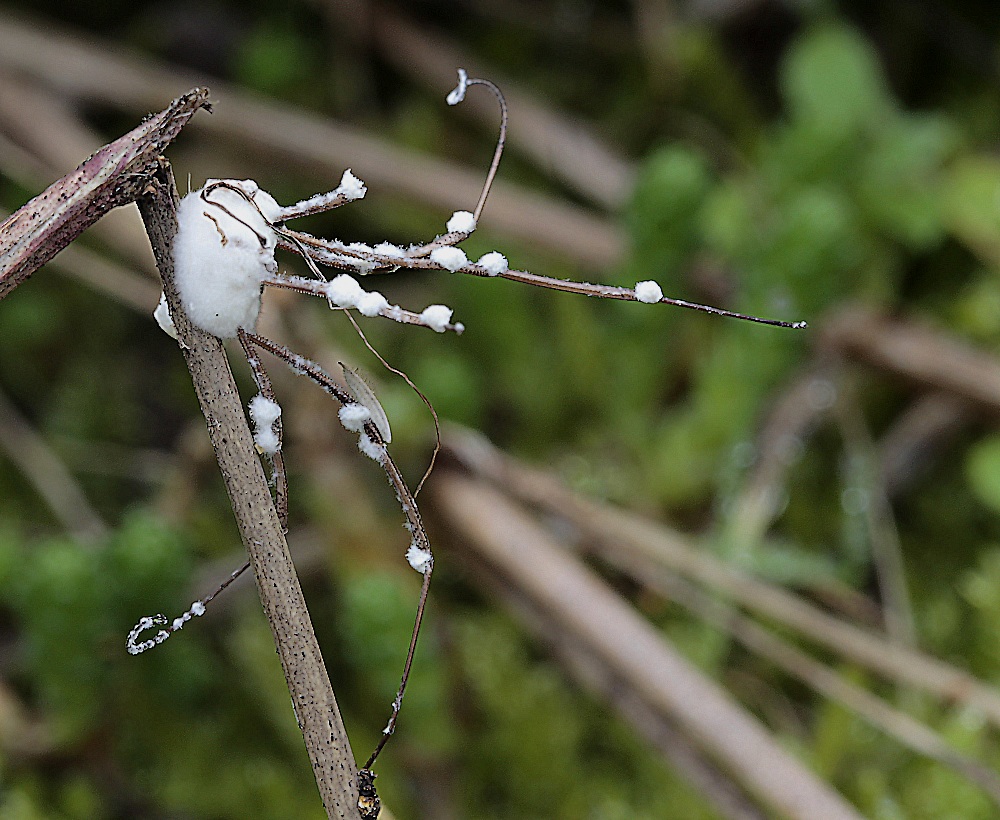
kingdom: Fungi
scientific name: Fungi
